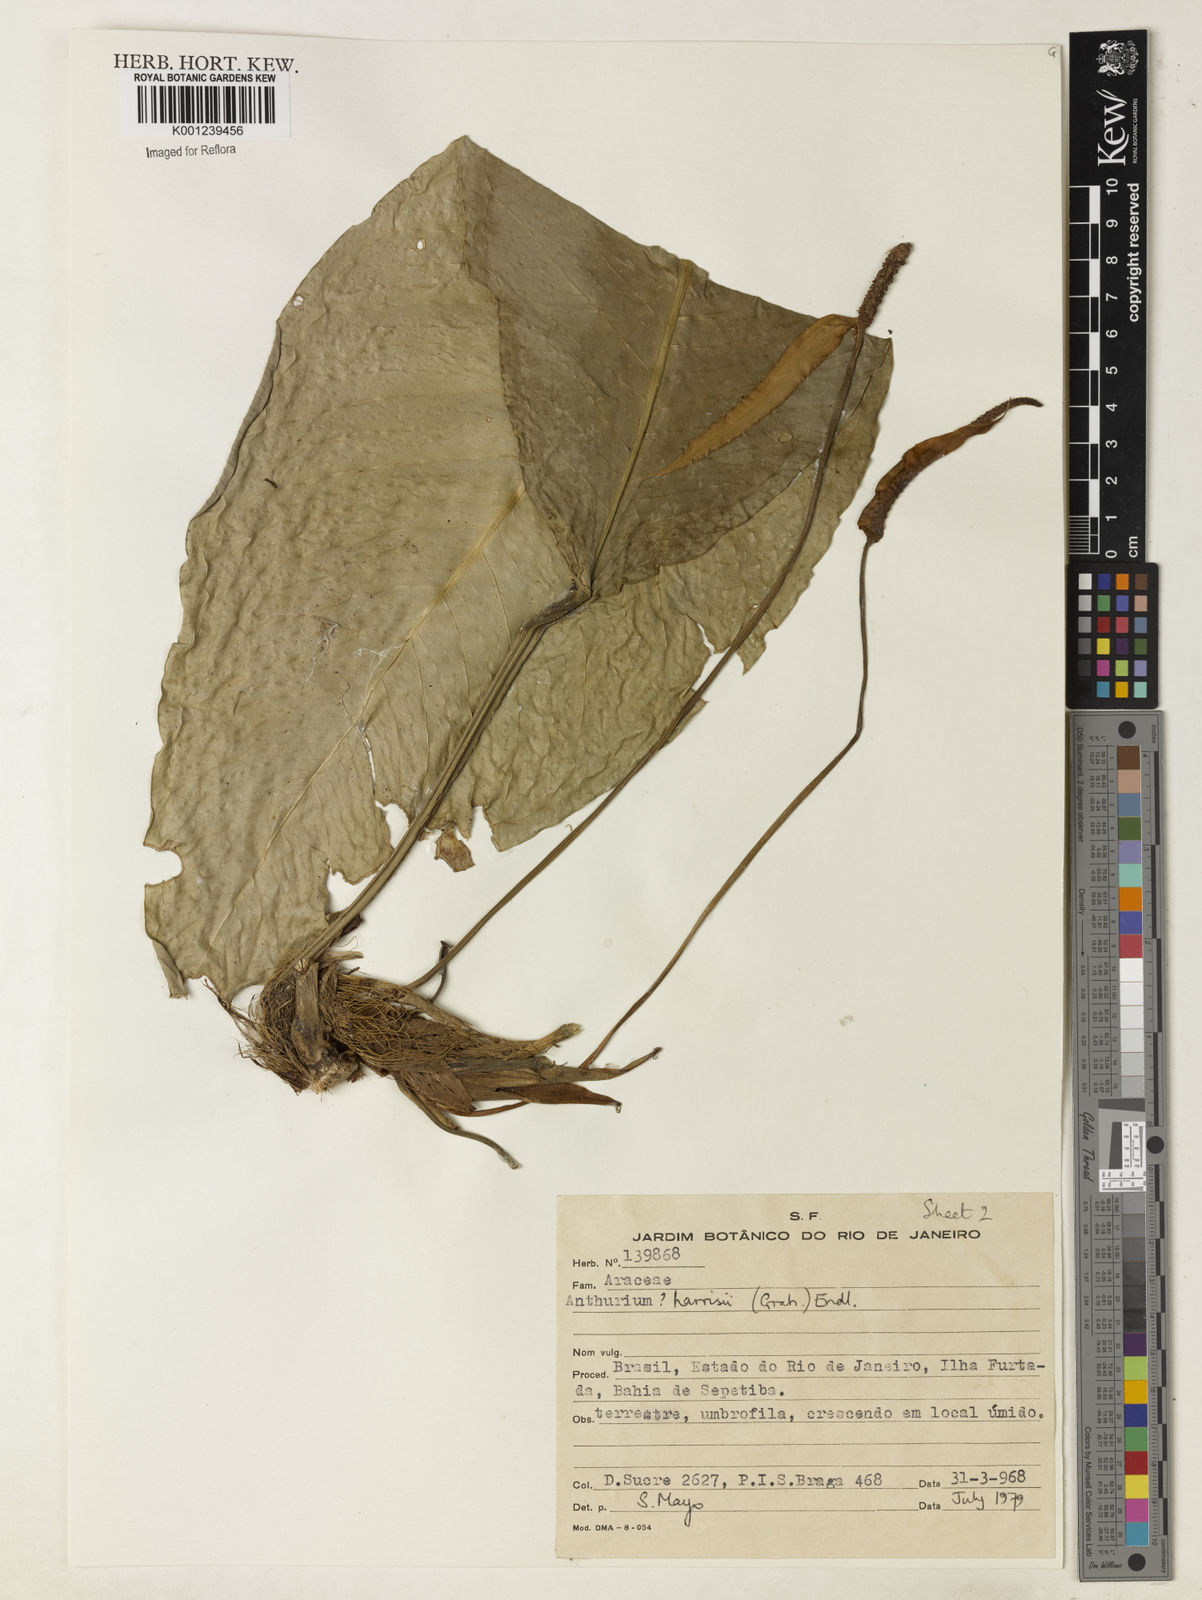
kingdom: Plantae
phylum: Tracheophyta
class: Liliopsida
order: Alismatales
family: Araceae
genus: Anthurium
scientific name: Anthurium harrisii
